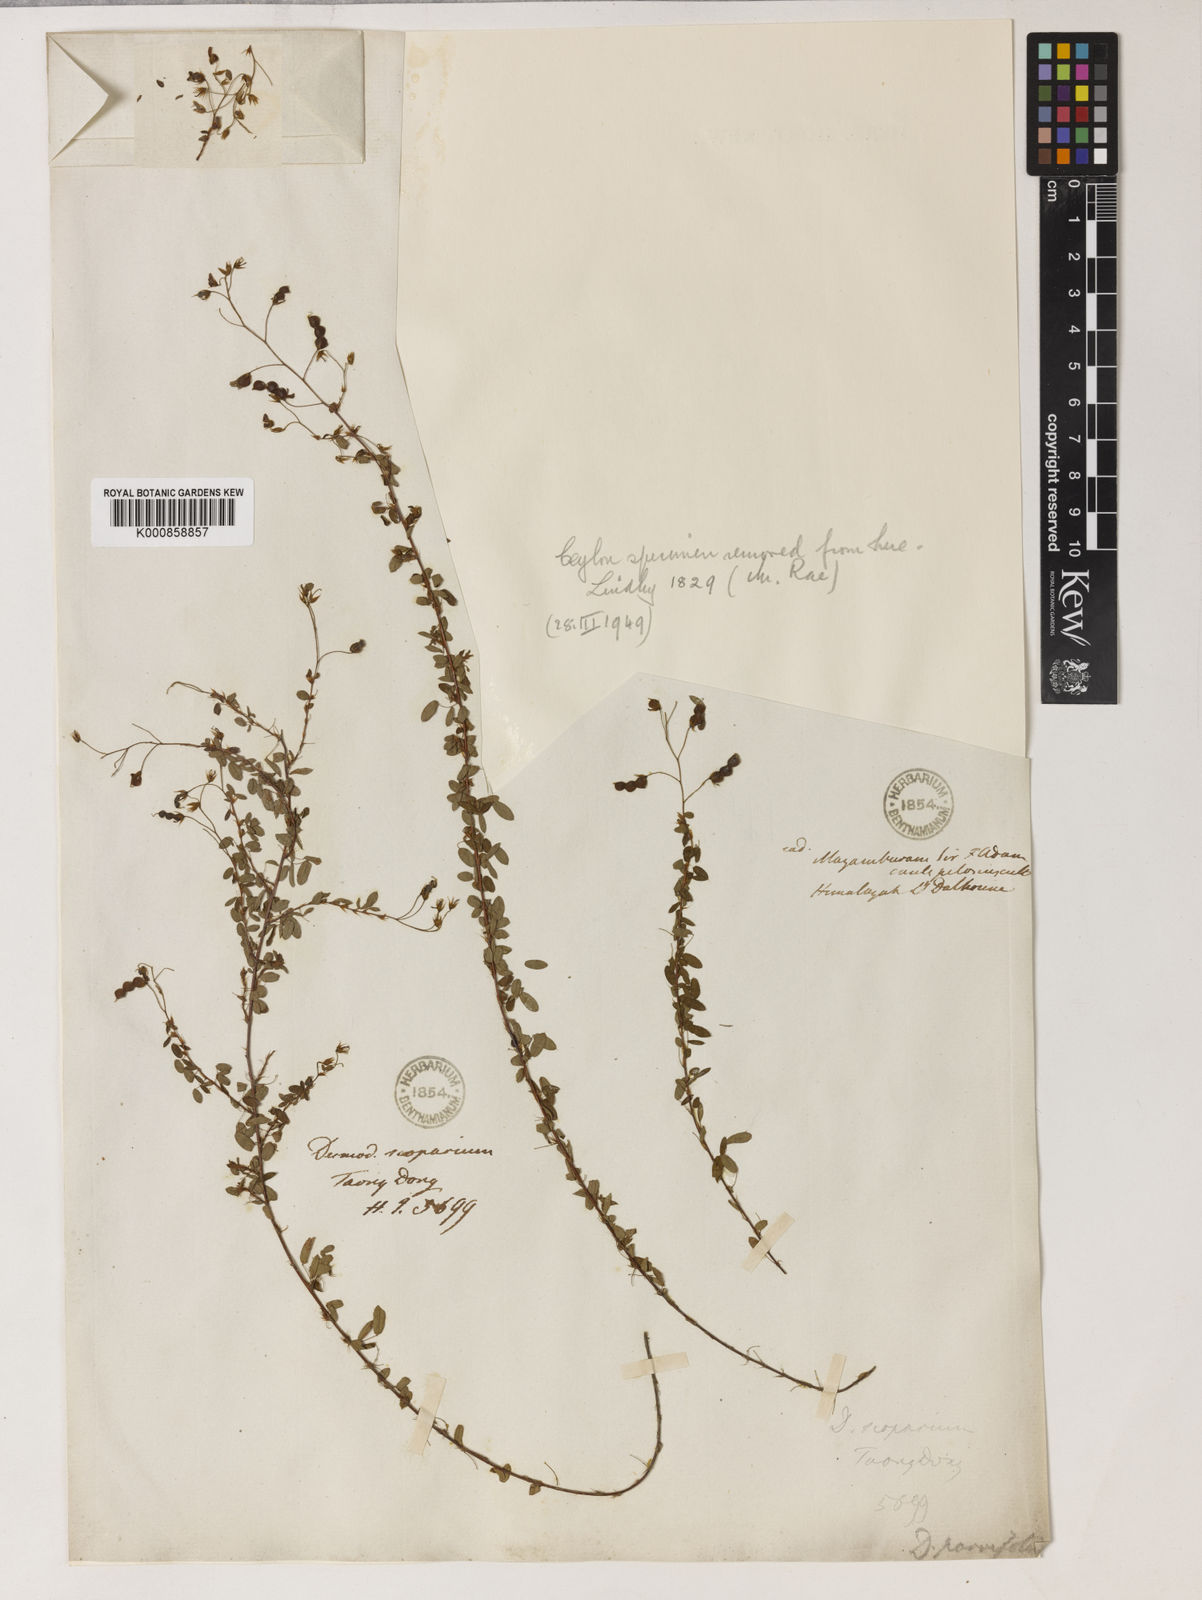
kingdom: Plantae
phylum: Tracheophyta
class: Magnoliopsida
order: Fabales
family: Fabaceae
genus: Leptodesmia
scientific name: Leptodesmia microphylla
